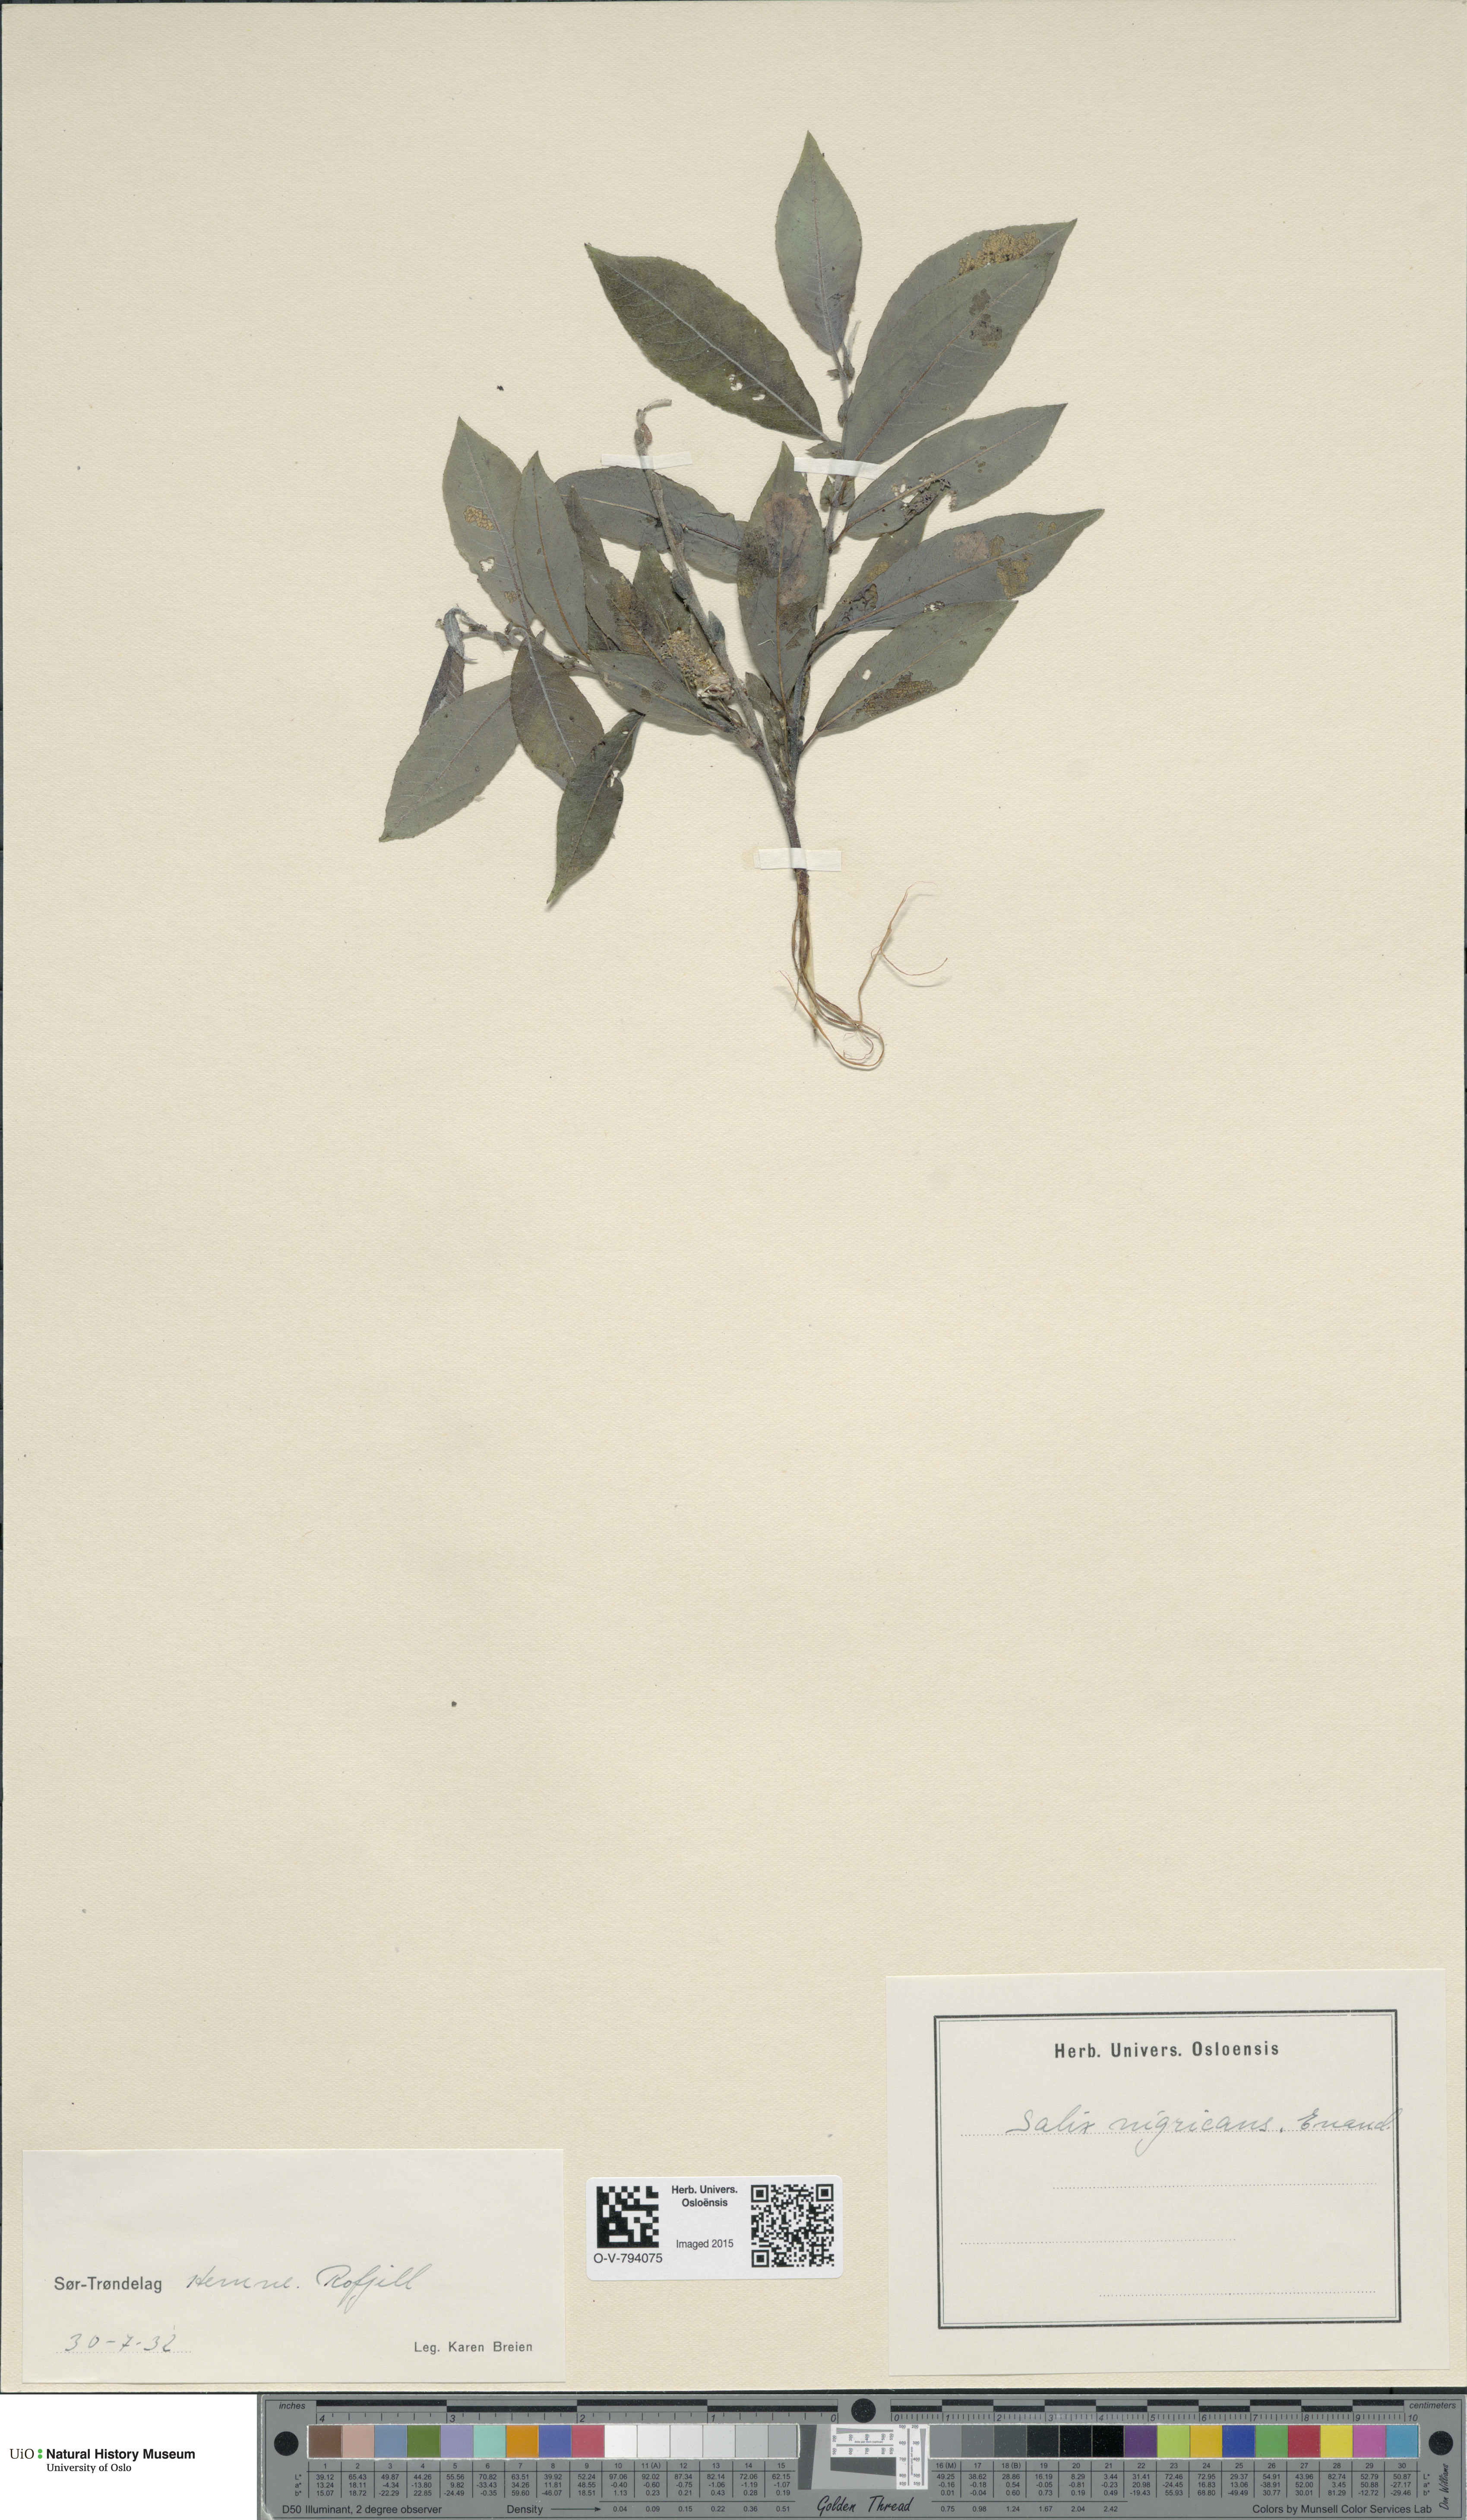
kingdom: Plantae
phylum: Tracheophyta
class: Magnoliopsida
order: Malpighiales
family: Salicaceae
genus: Salix
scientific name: Salix myrsinifolia
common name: Dark-leaved willow
